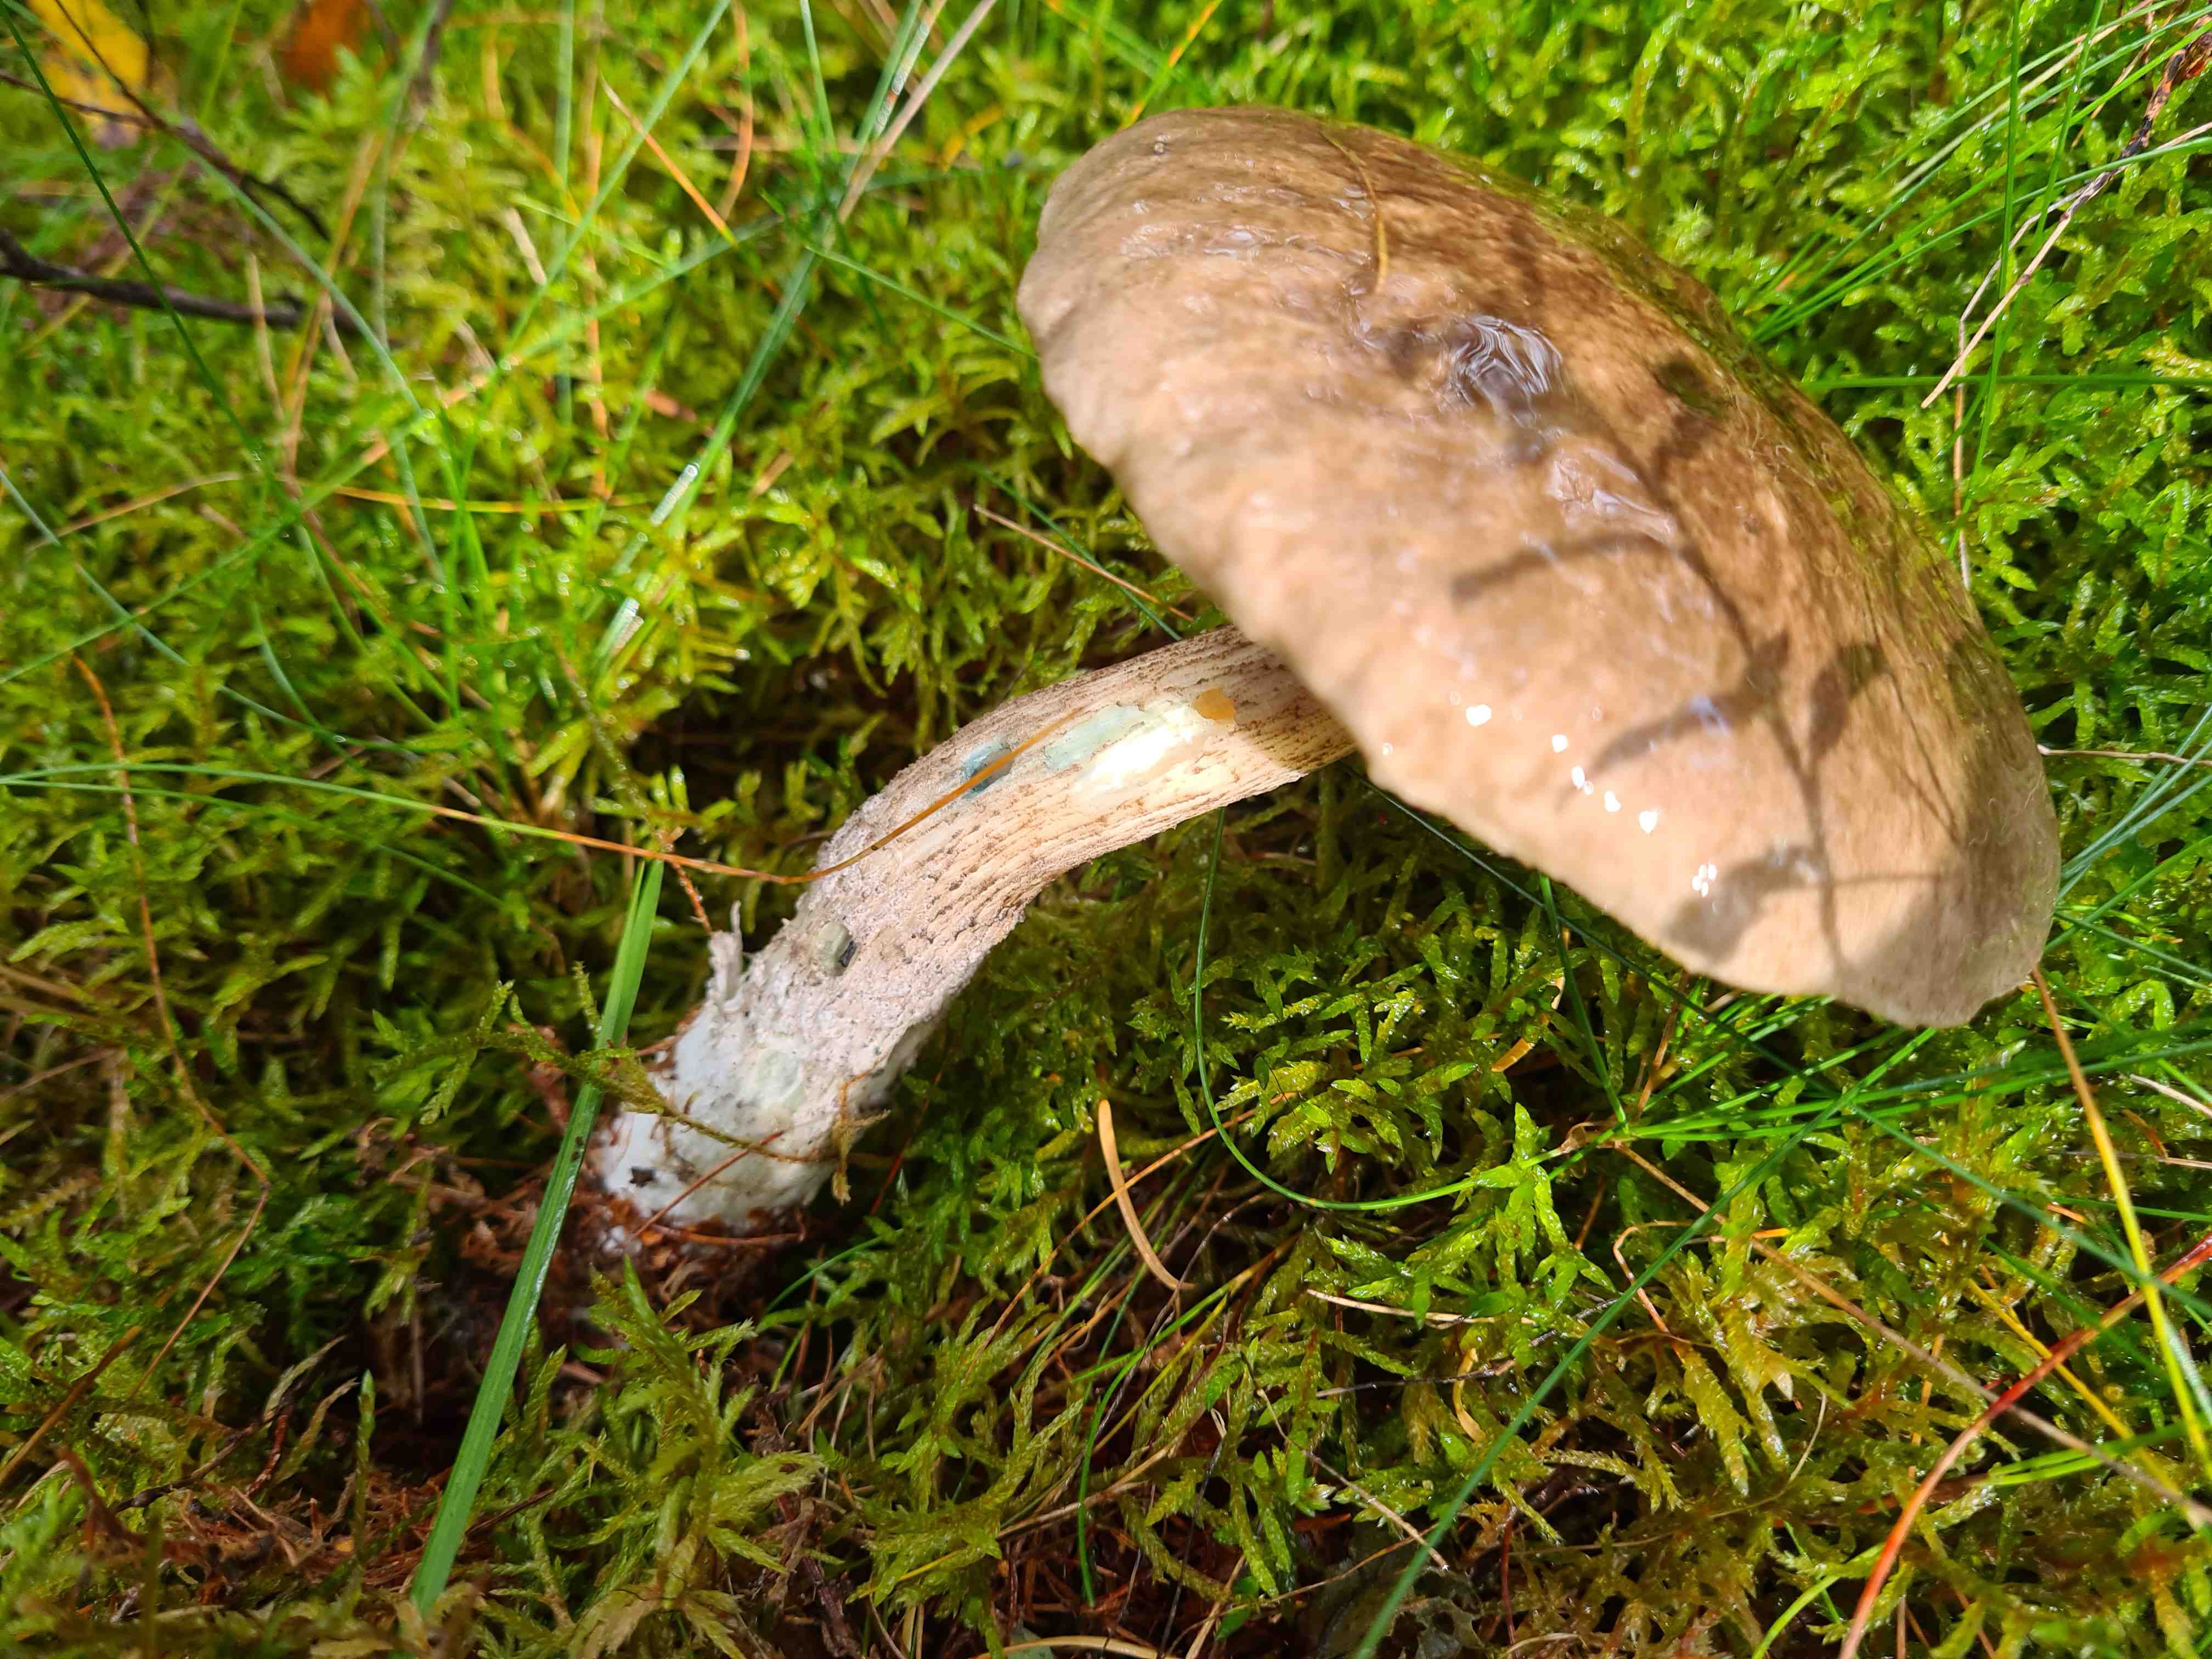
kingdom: Fungi
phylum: Basidiomycota
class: Agaricomycetes
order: Boletales
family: Boletaceae
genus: Leccinum
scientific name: Leccinum cyaneobasileucum
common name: almindelig skælrørhat
